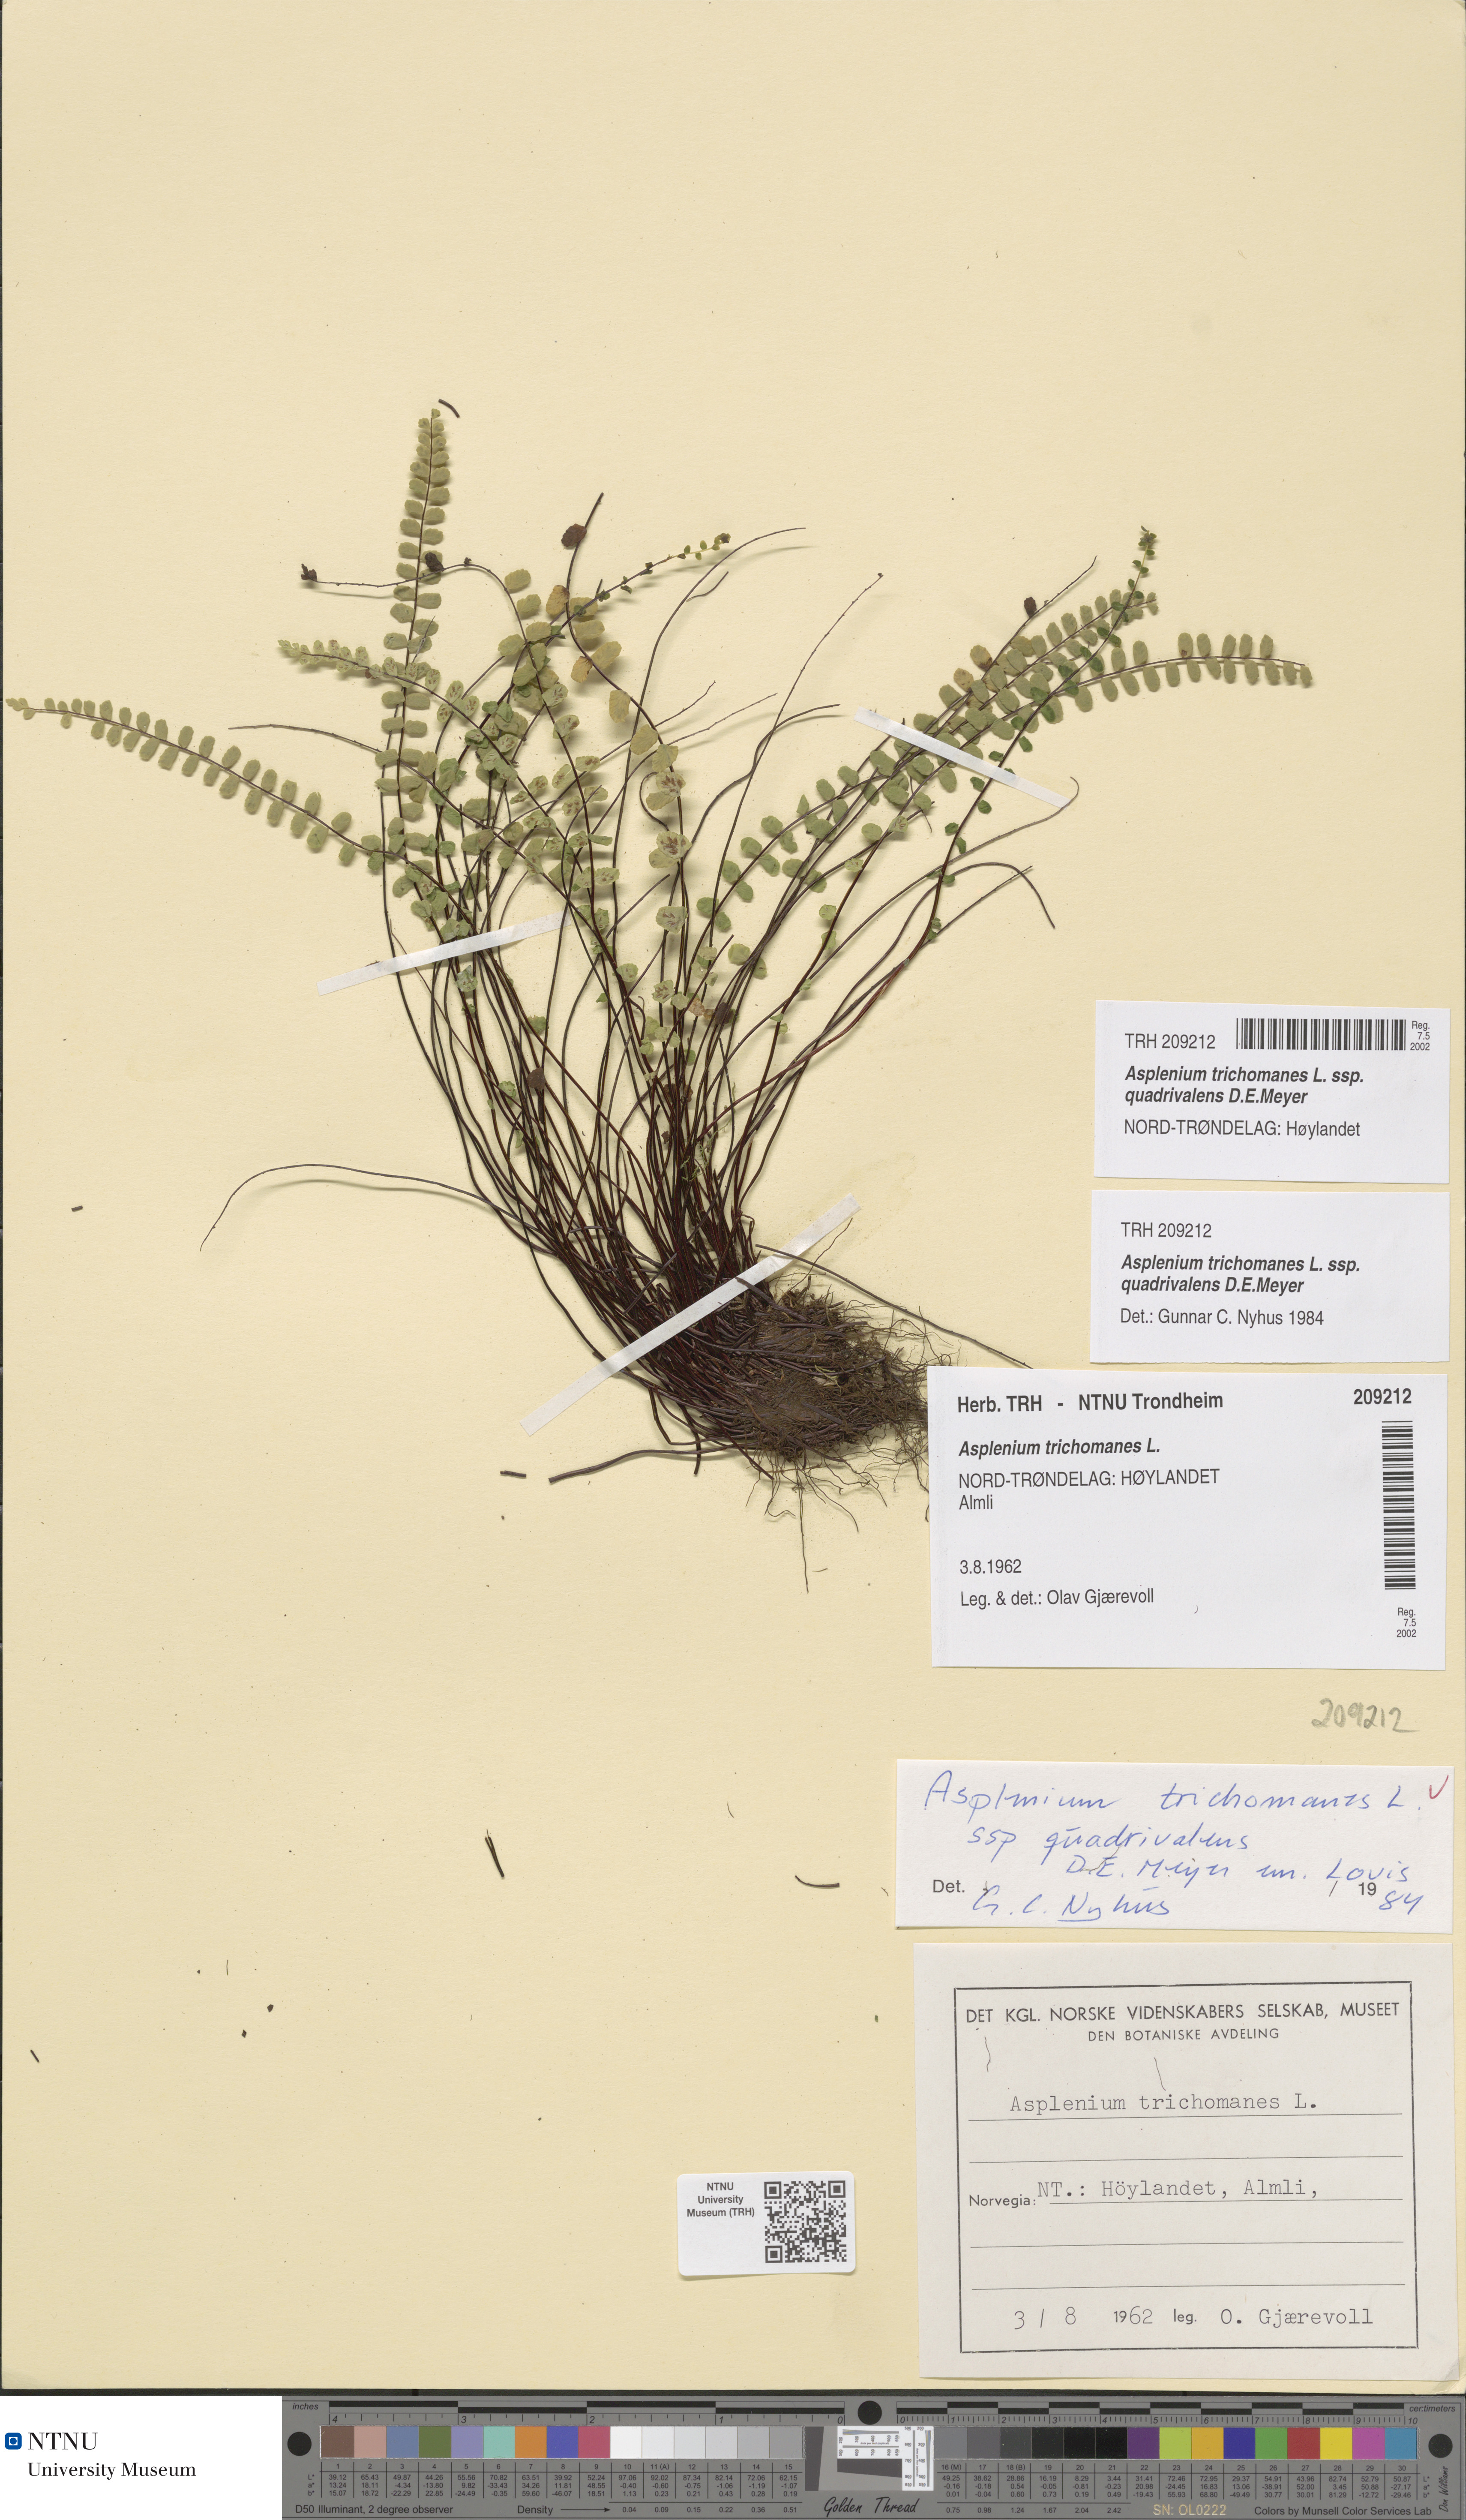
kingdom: Plantae
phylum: Tracheophyta
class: Polypodiopsida
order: Polypodiales
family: Aspleniaceae
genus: Asplenium
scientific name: Asplenium quadrivalens
